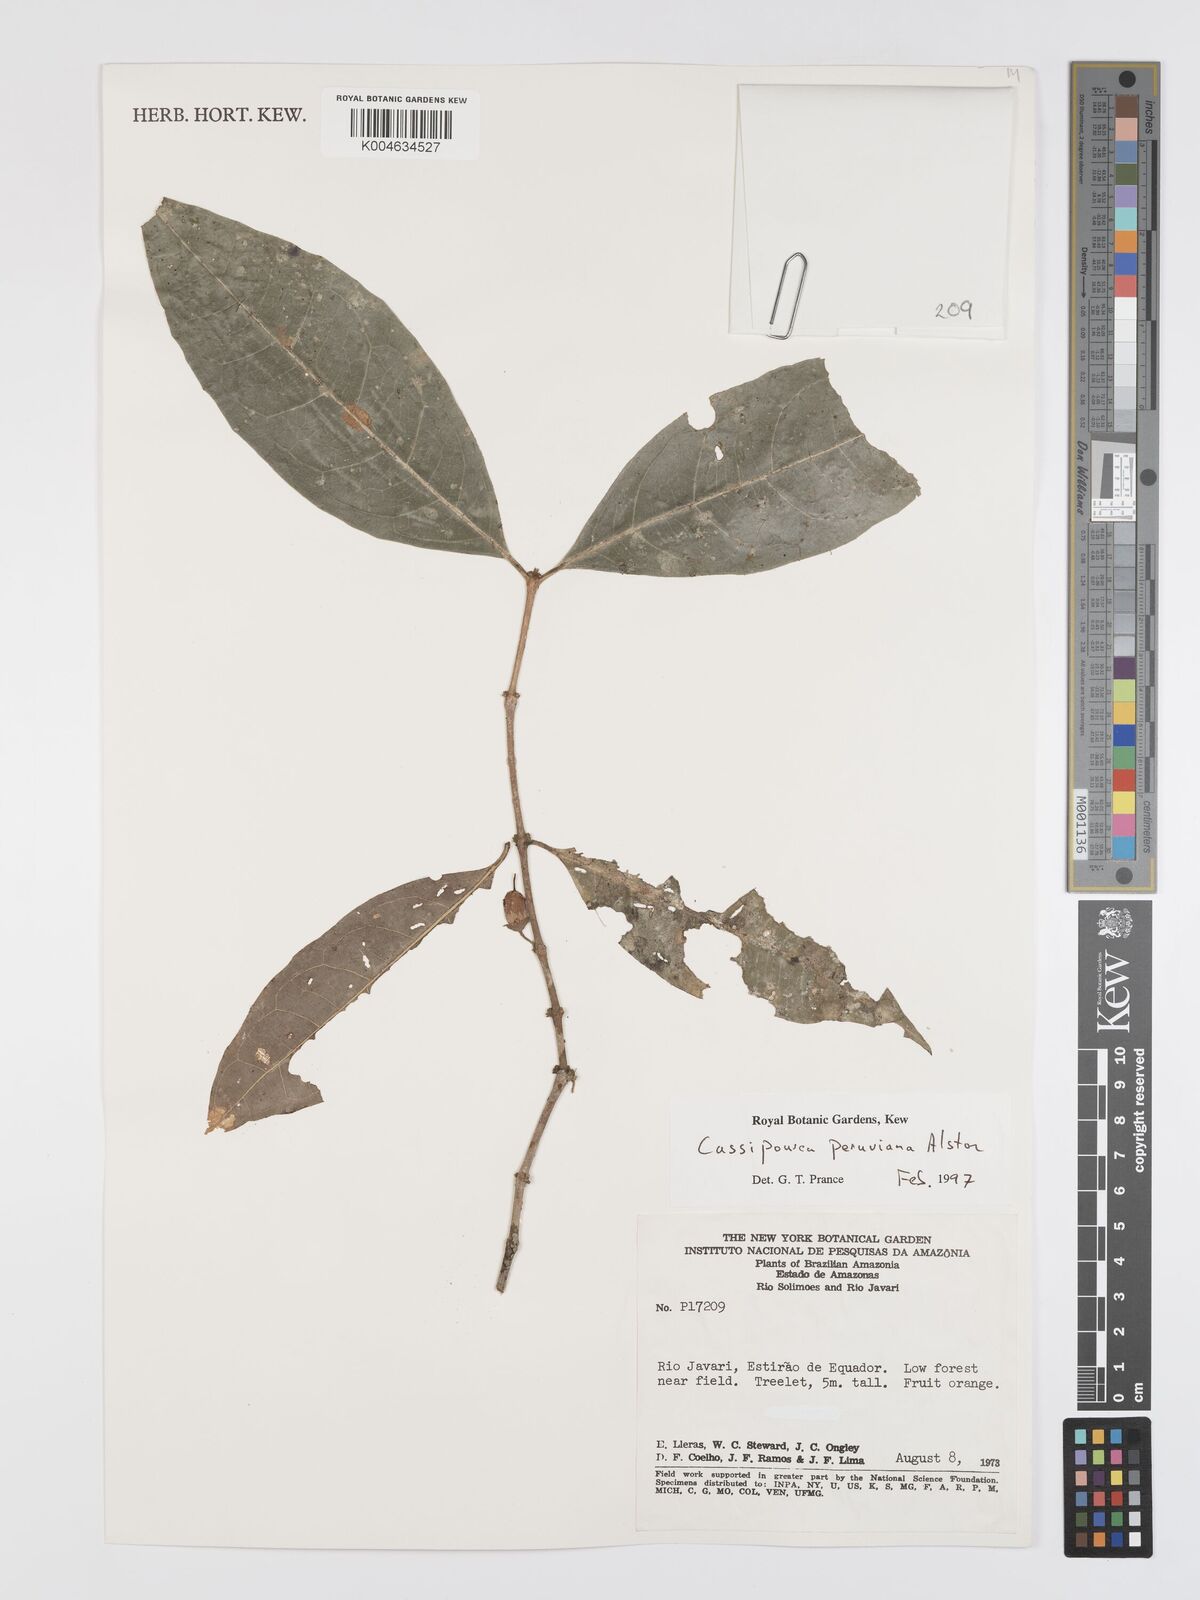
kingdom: Plantae
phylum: Tracheophyta
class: Magnoliopsida
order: Malpighiales
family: Rhizophoraceae
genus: Cassipourea
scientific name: Cassipourea peruviana
